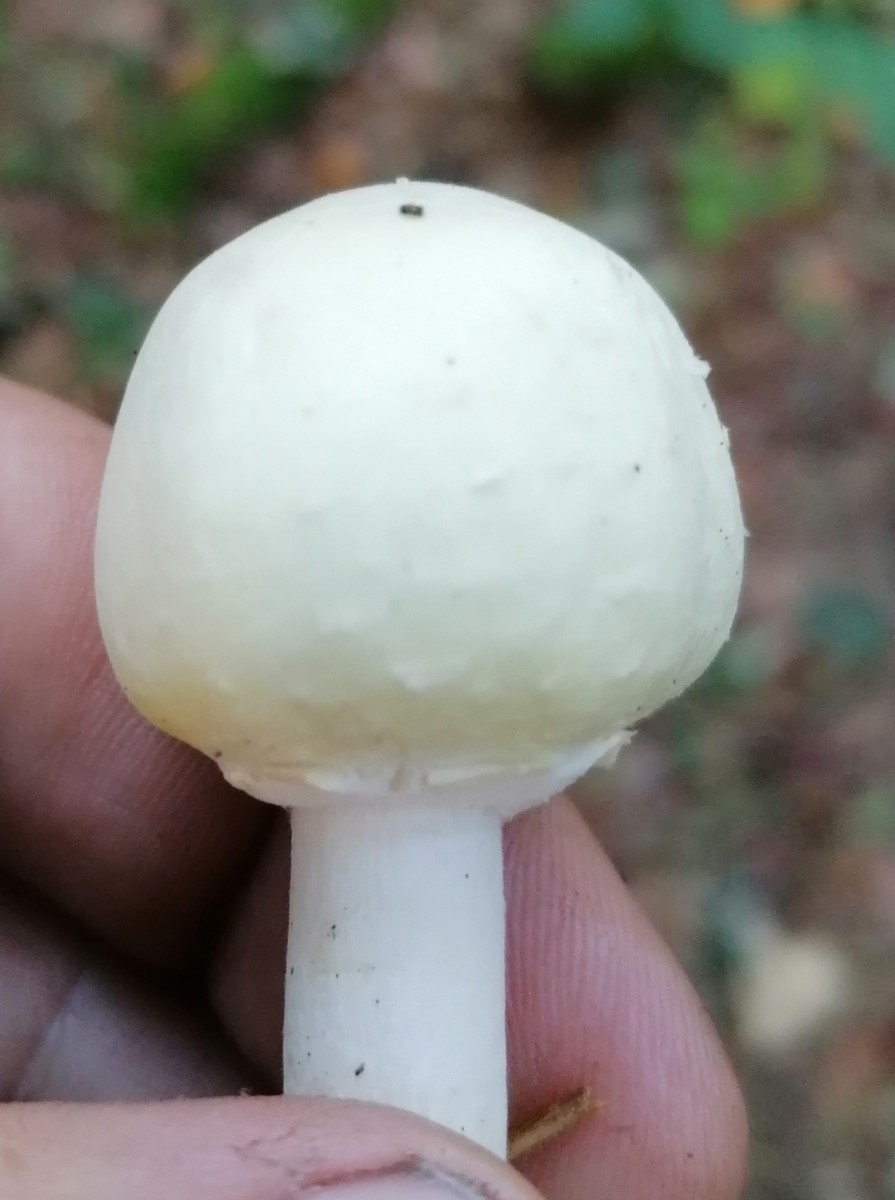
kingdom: Fungi
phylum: Basidiomycota
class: Agaricomycetes
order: Agaricales
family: Agaricaceae
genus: Agaricus
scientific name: Agaricus sylvicola
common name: gulhvid champignon
